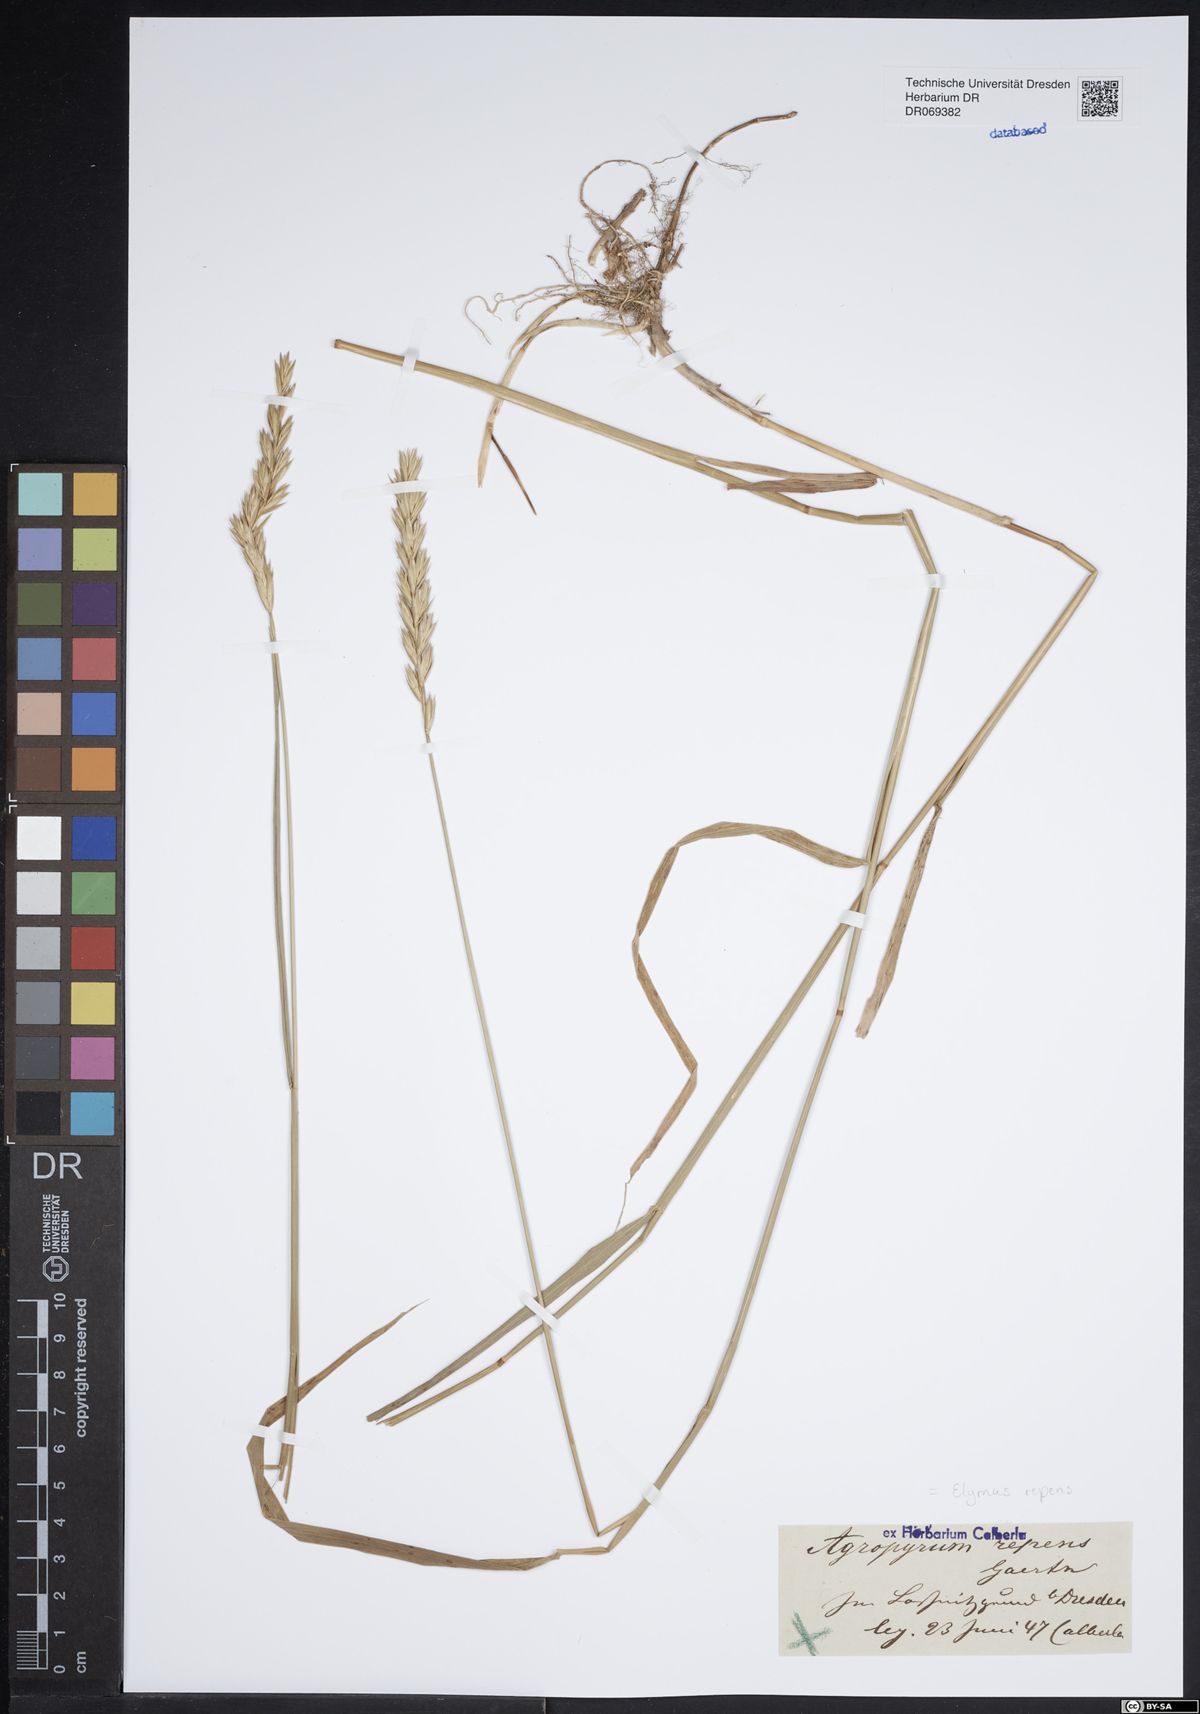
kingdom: Plantae
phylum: Tracheophyta
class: Liliopsida
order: Poales
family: Poaceae
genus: Elymus
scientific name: Elymus repens
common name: Quackgrass
